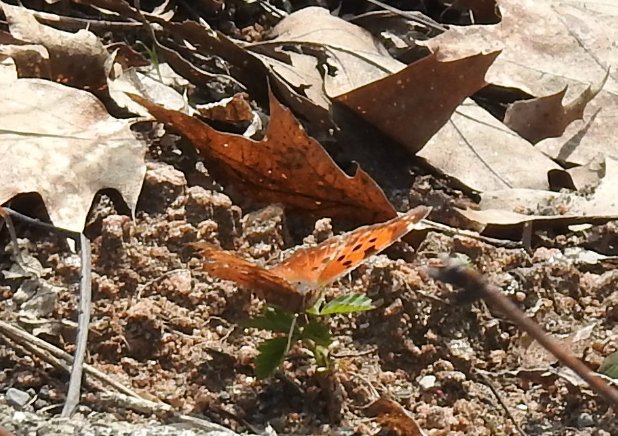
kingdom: Animalia
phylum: Arthropoda
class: Insecta
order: Lepidoptera
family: Nymphalidae
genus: Polygonia
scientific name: Polygonia comma
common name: Eastern Comma
